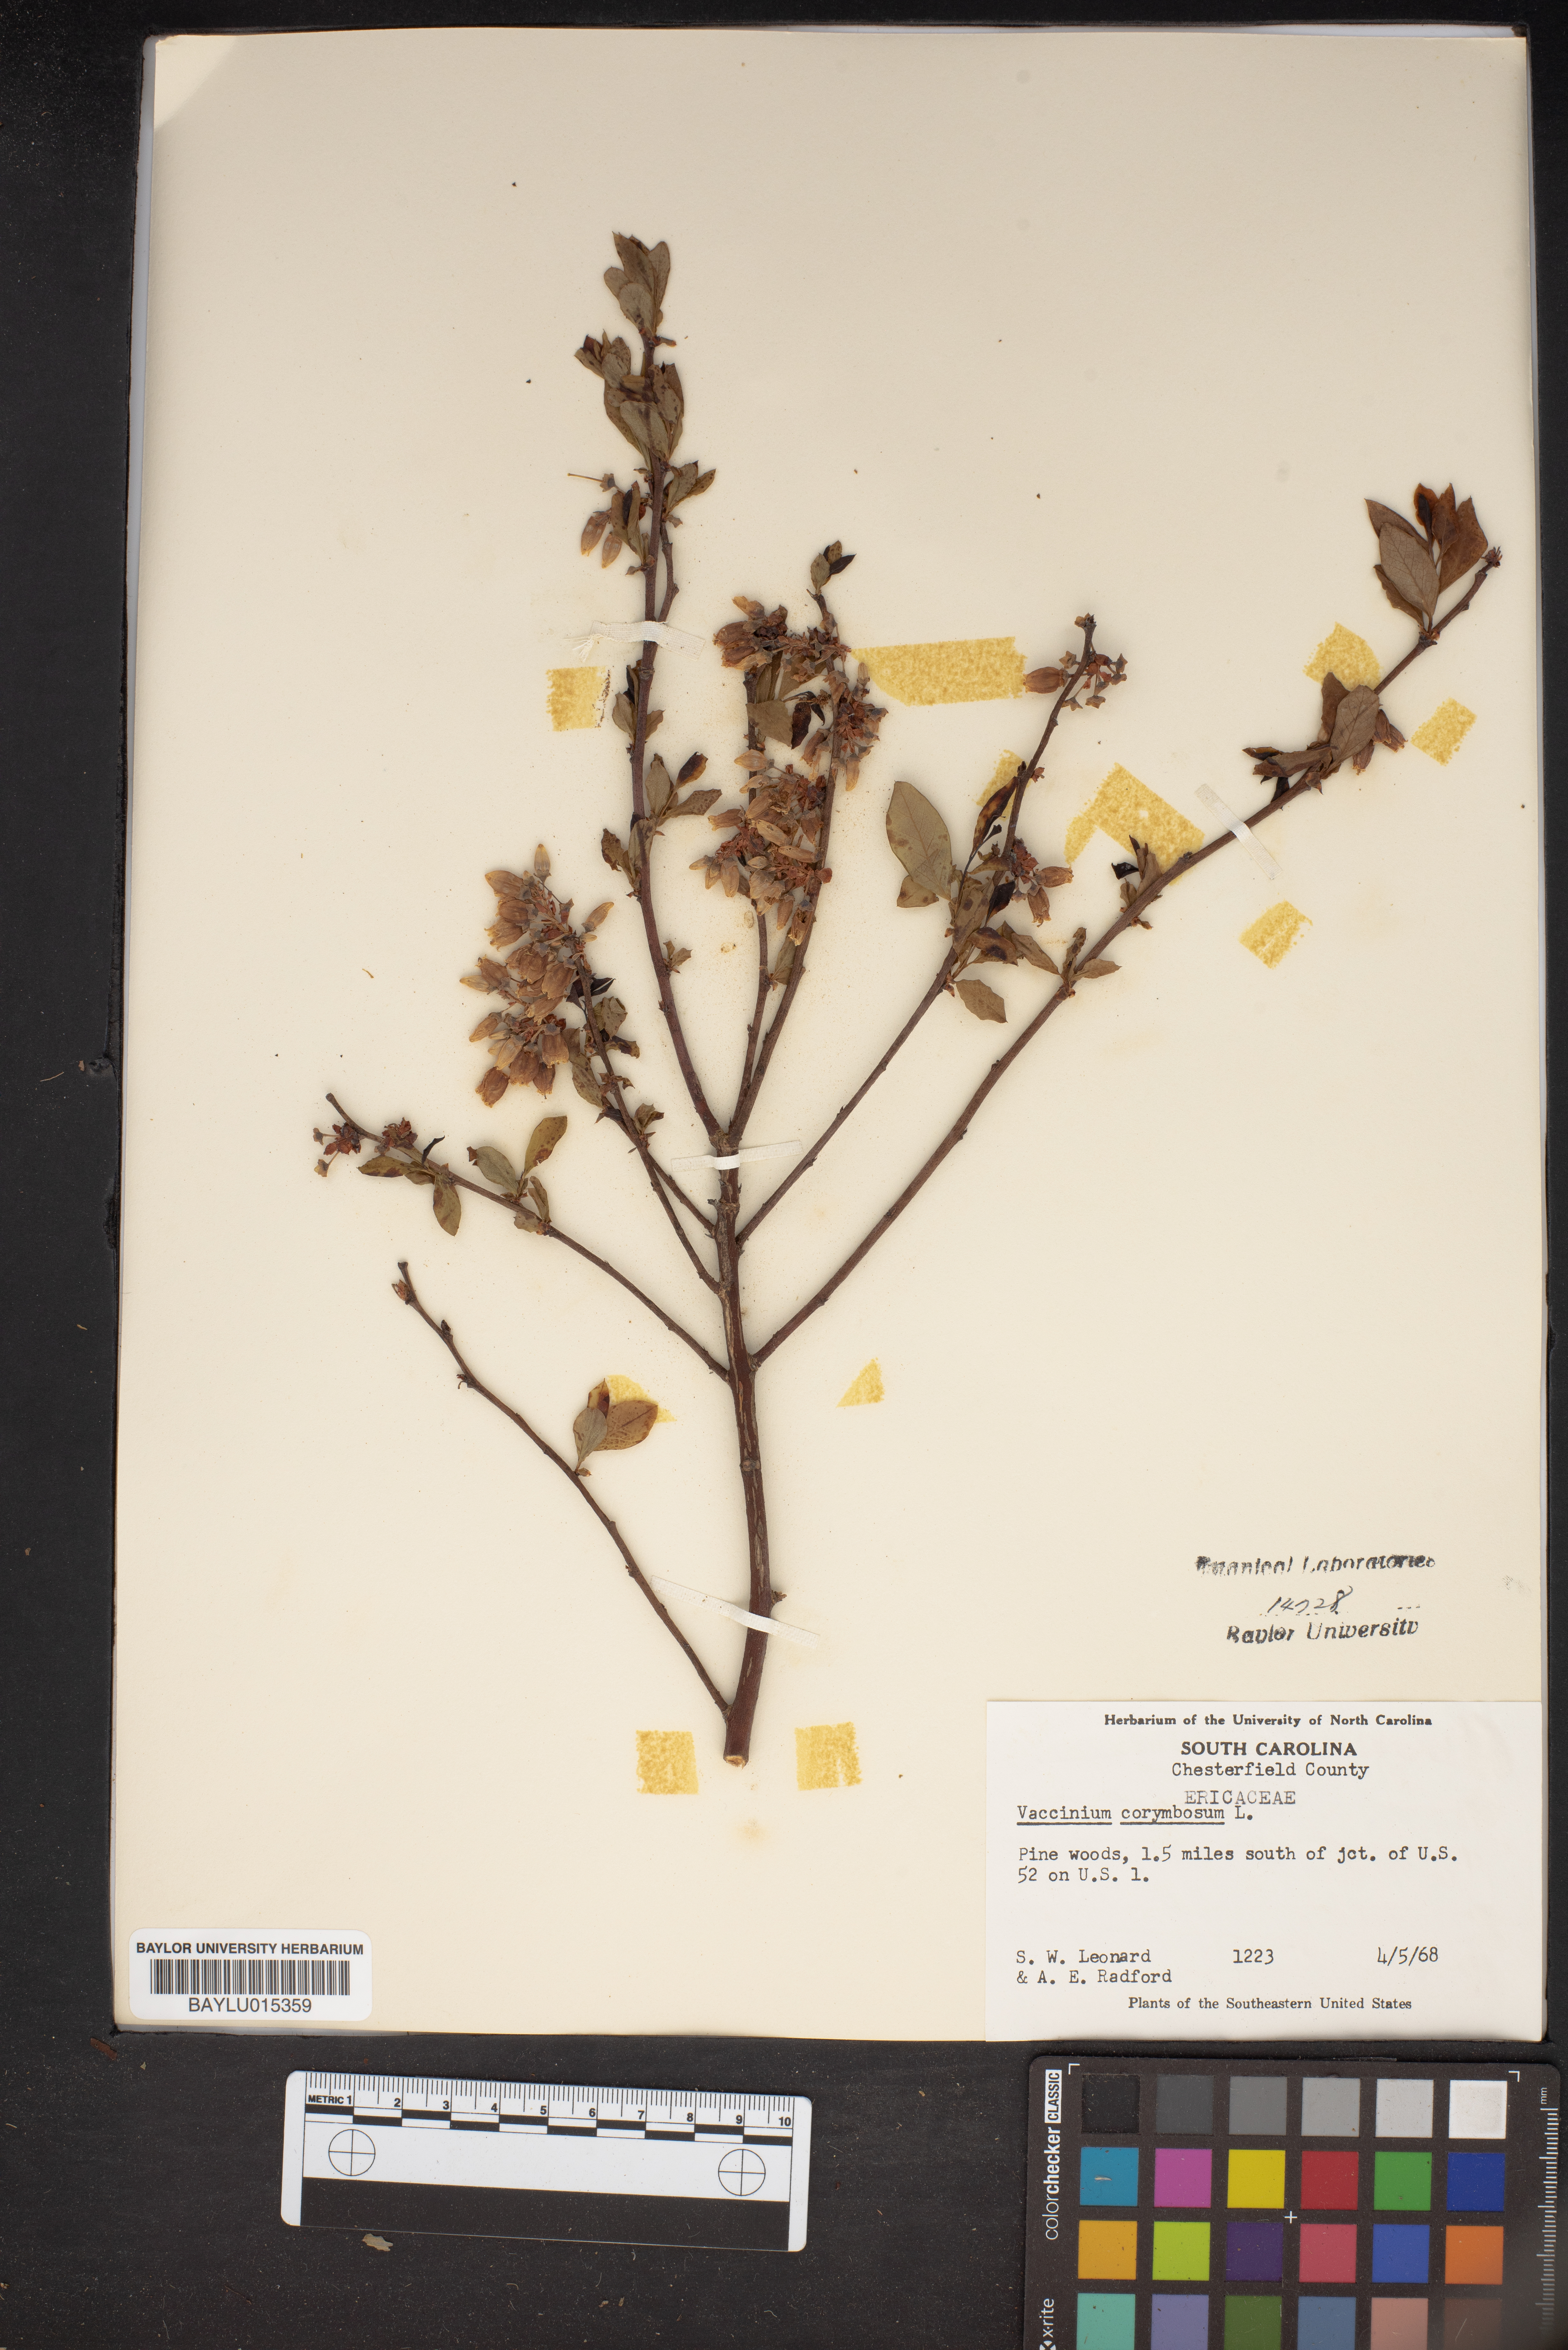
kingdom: Plantae
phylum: Tracheophyta
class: Magnoliopsida
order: Ericales
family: Ericaceae
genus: Vaccinium
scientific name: Vaccinium corymbosum
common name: Blueberry
